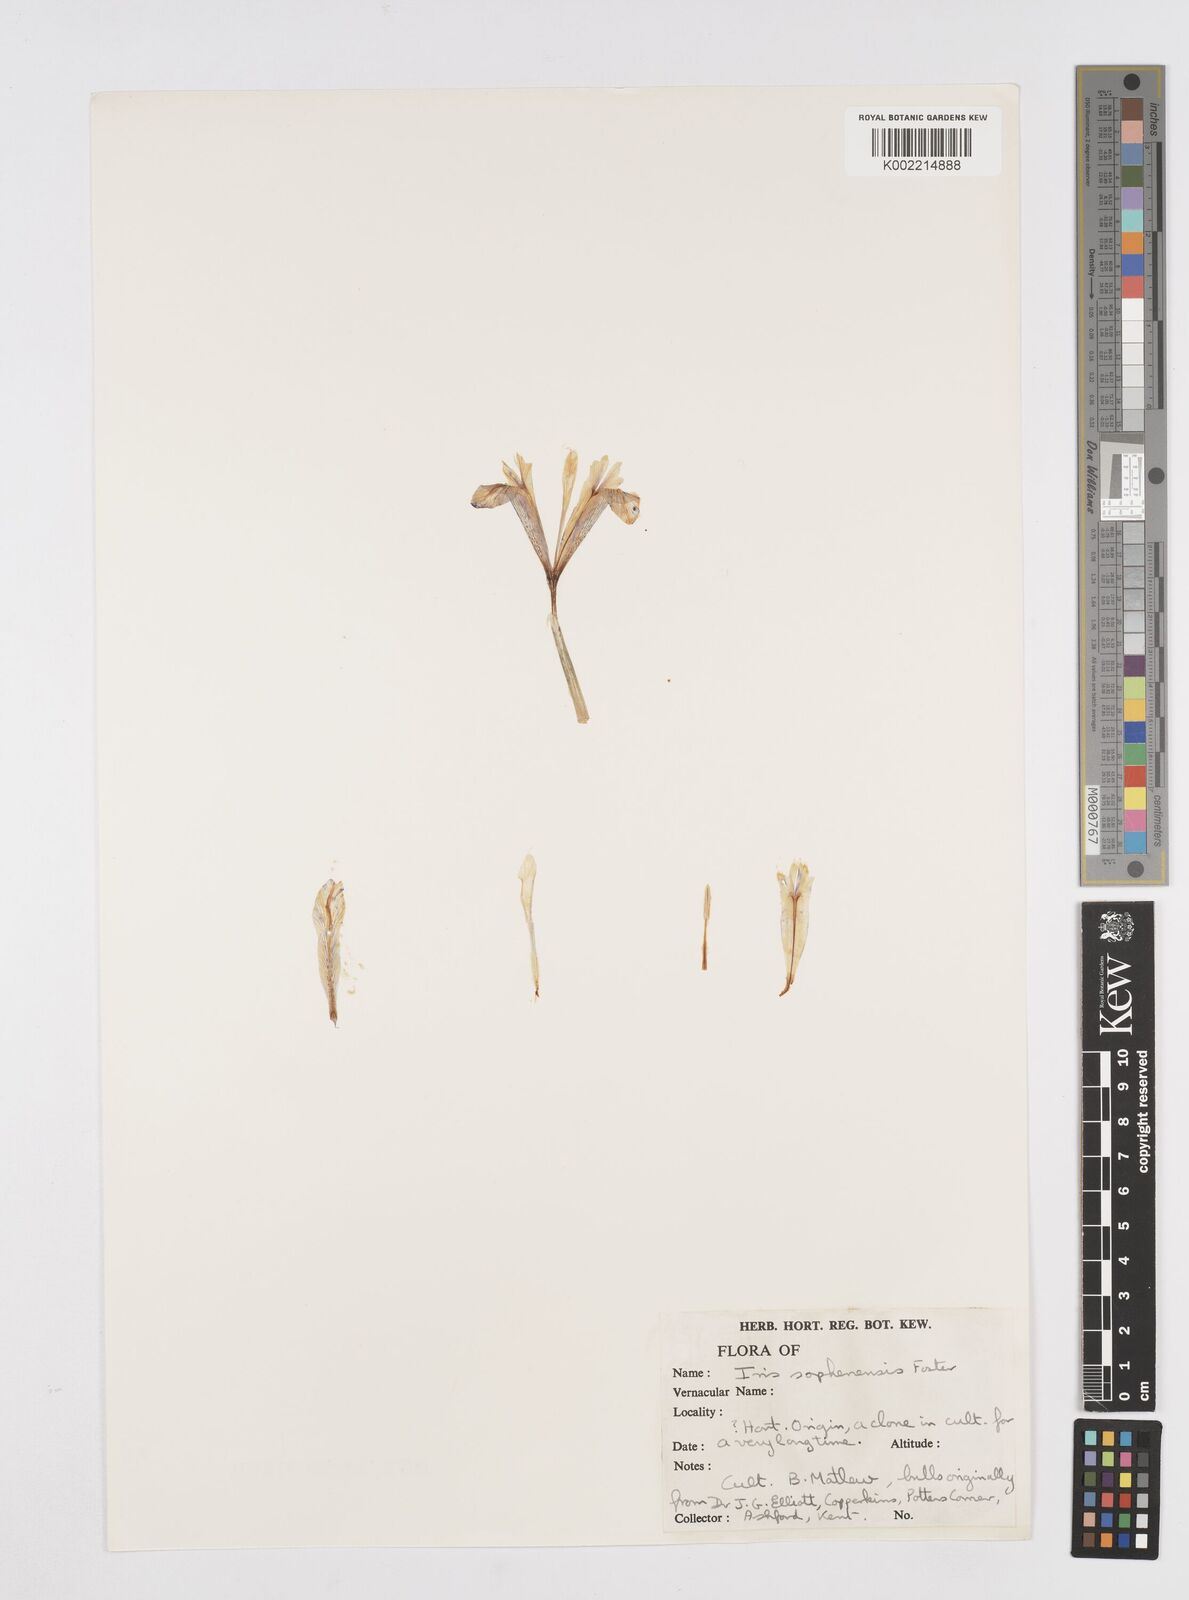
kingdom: Plantae
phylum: Tracheophyta
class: Liliopsida
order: Asparagales
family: Iridaceae
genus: Iris
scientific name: Iris sophenensis
